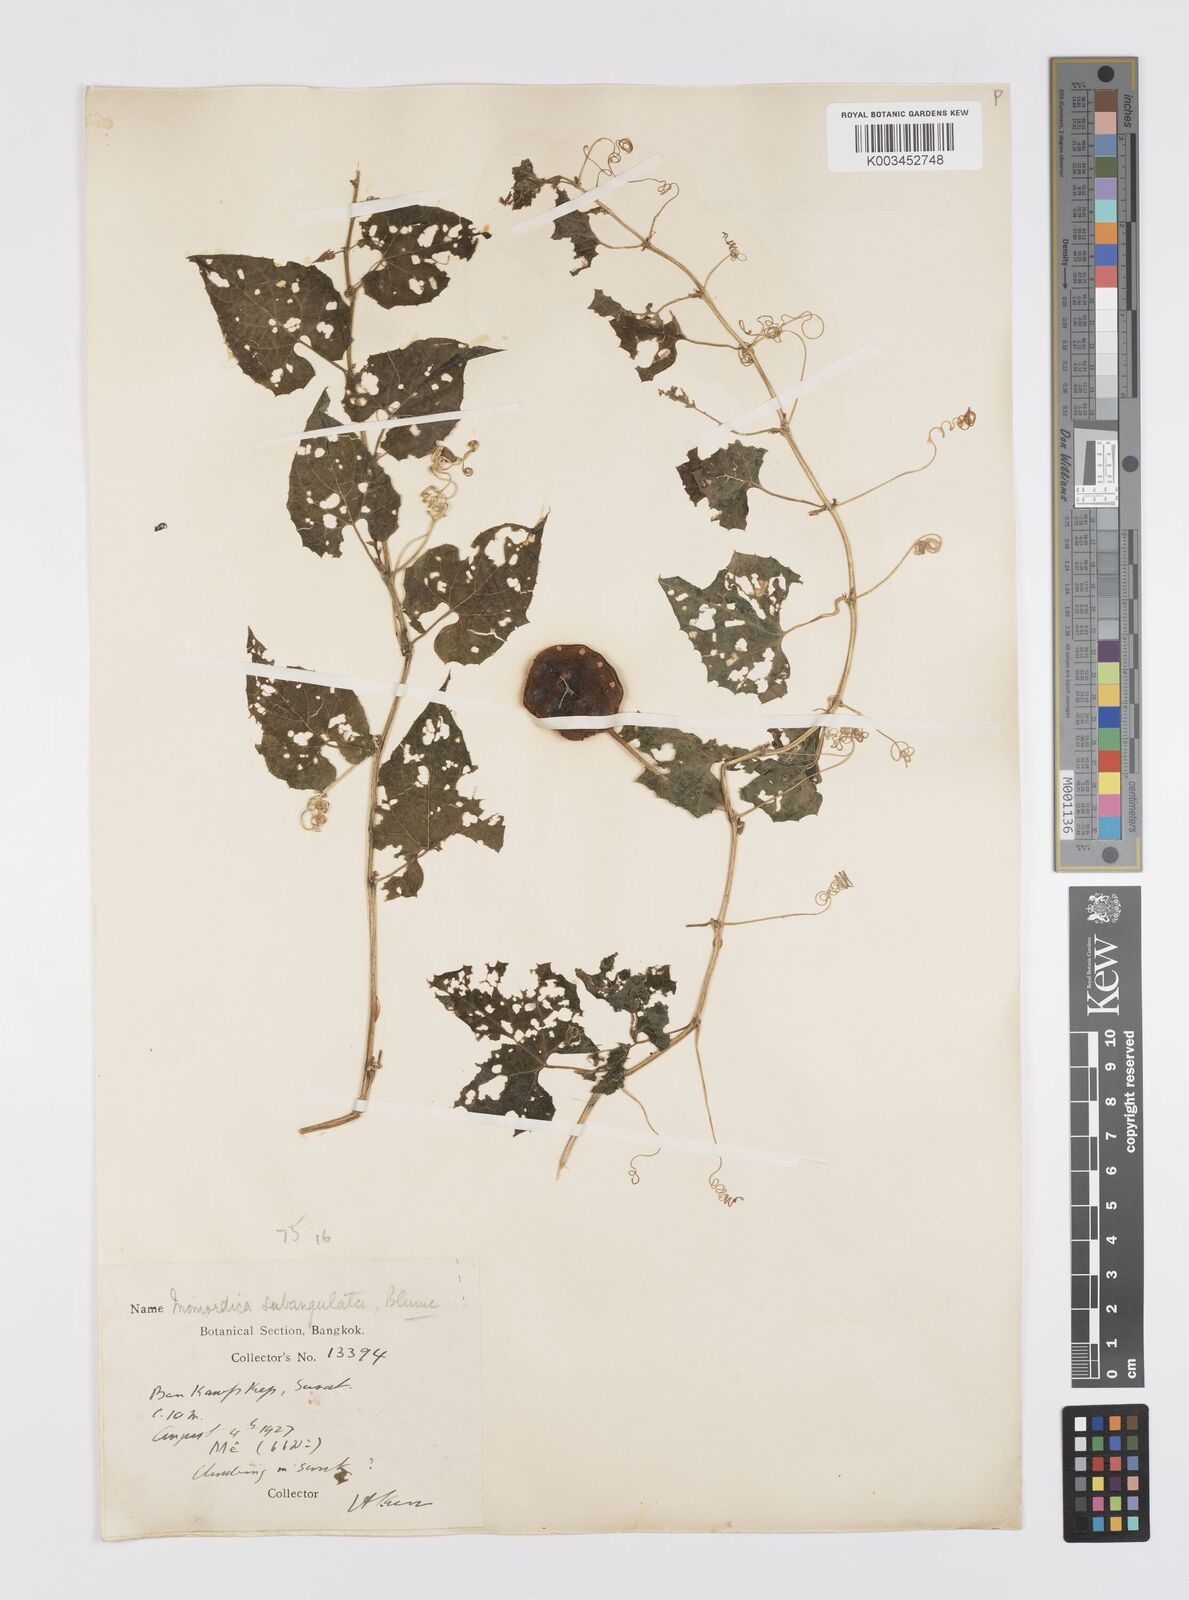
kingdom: Plantae
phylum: Tracheophyta
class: Magnoliopsida
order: Cucurbitales
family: Cucurbitaceae
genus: Momordica
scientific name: Momordica subangulata
